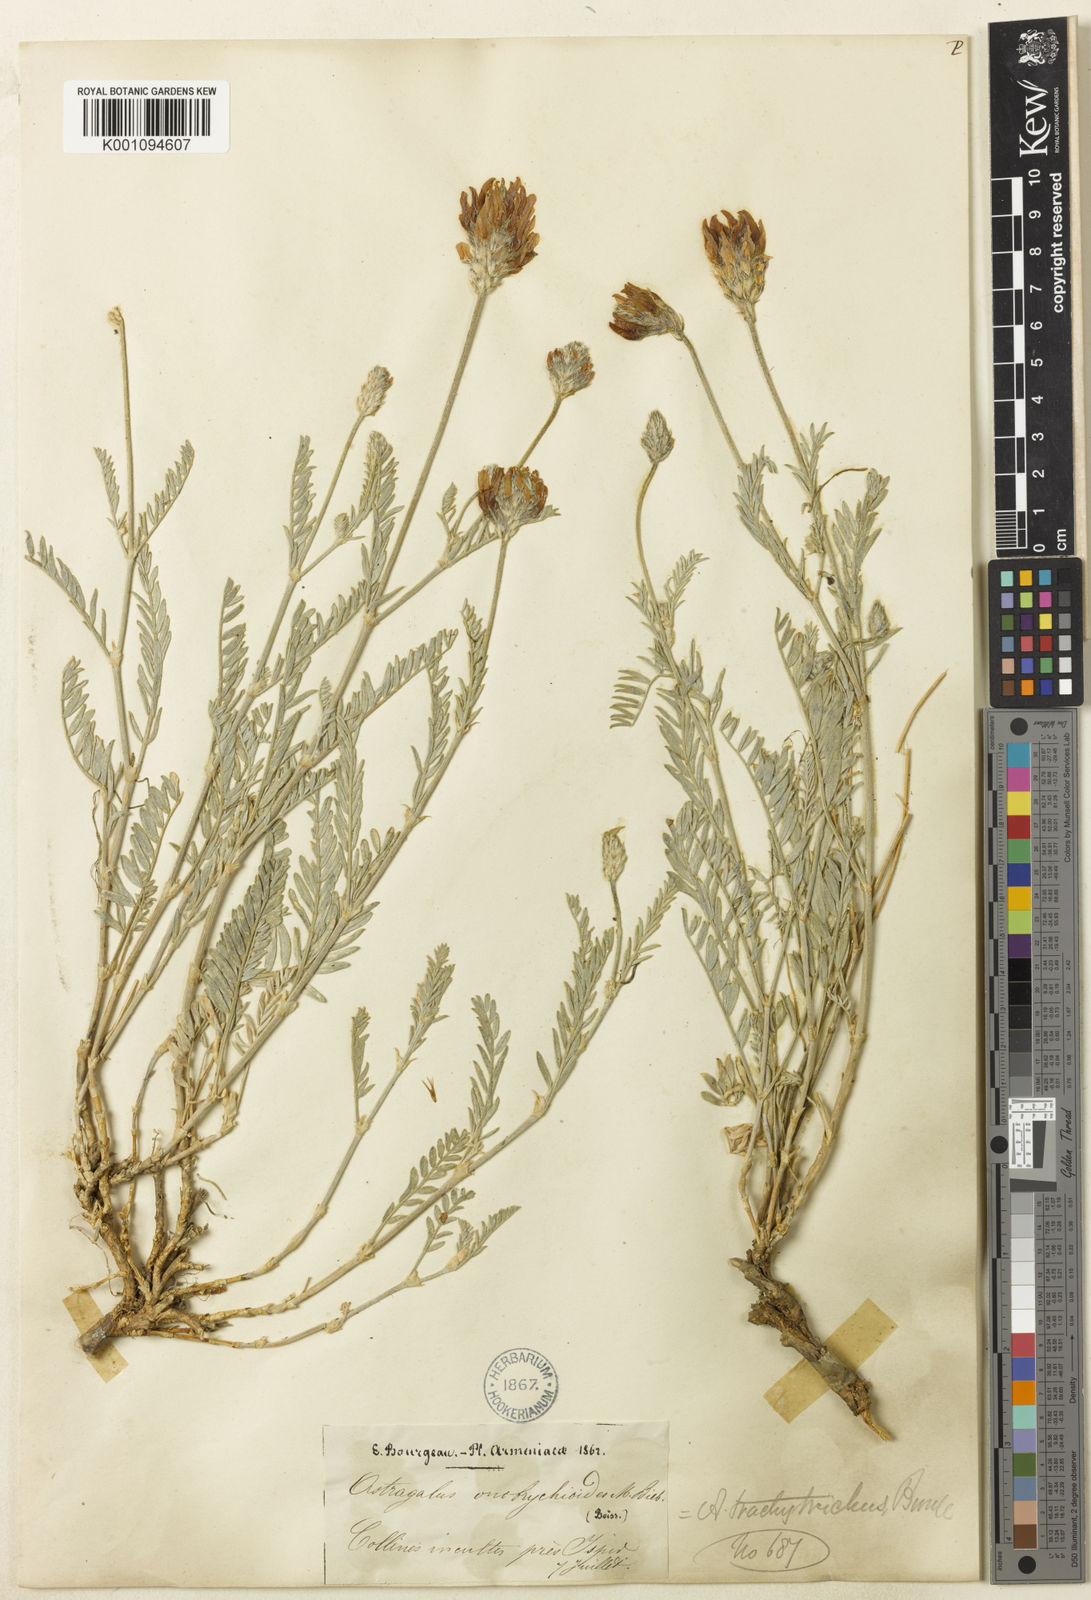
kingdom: Plantae
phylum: Tracheophyta
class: Magnoliopsida
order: Fabales
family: Fabaceae
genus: Astragalus
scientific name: Astragalus
